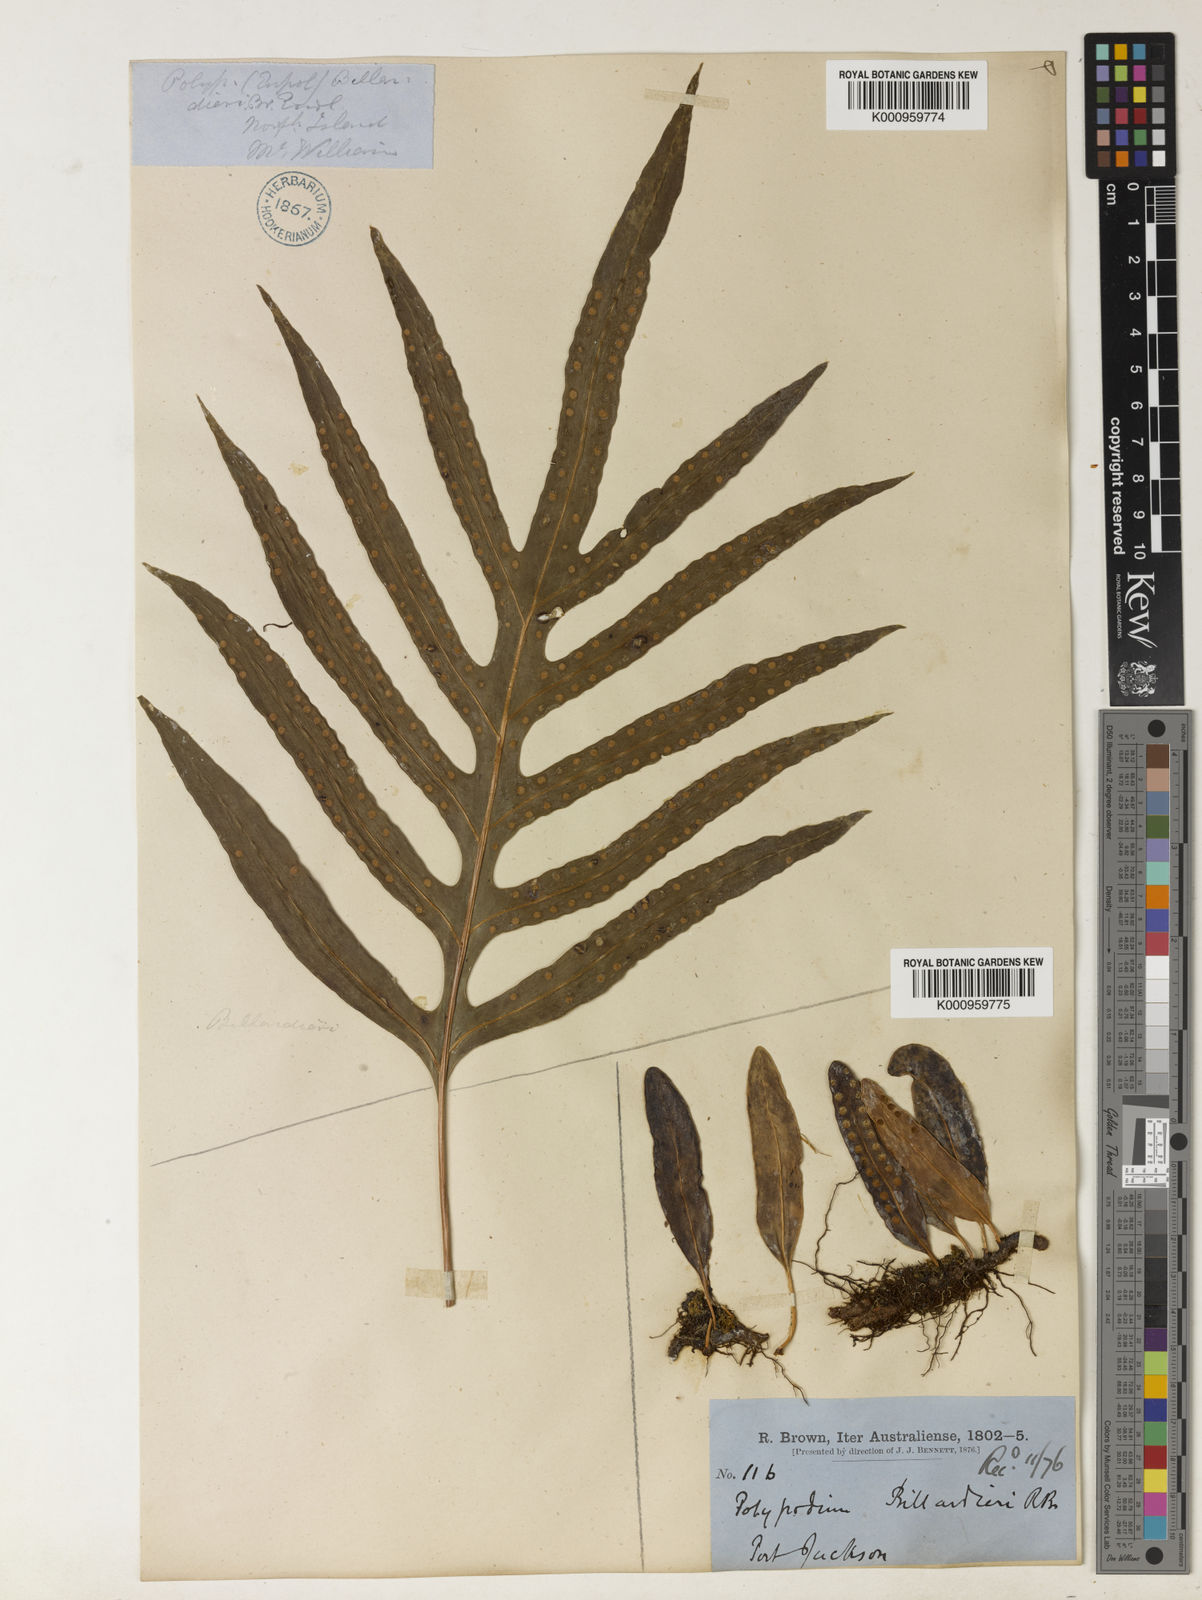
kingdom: Plantae
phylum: Tracheophyta
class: Polypodiopsida
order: Polypodiales
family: Polypodiaceae
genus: Drynaria
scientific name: Drynaria rigidula
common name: Basket fern
